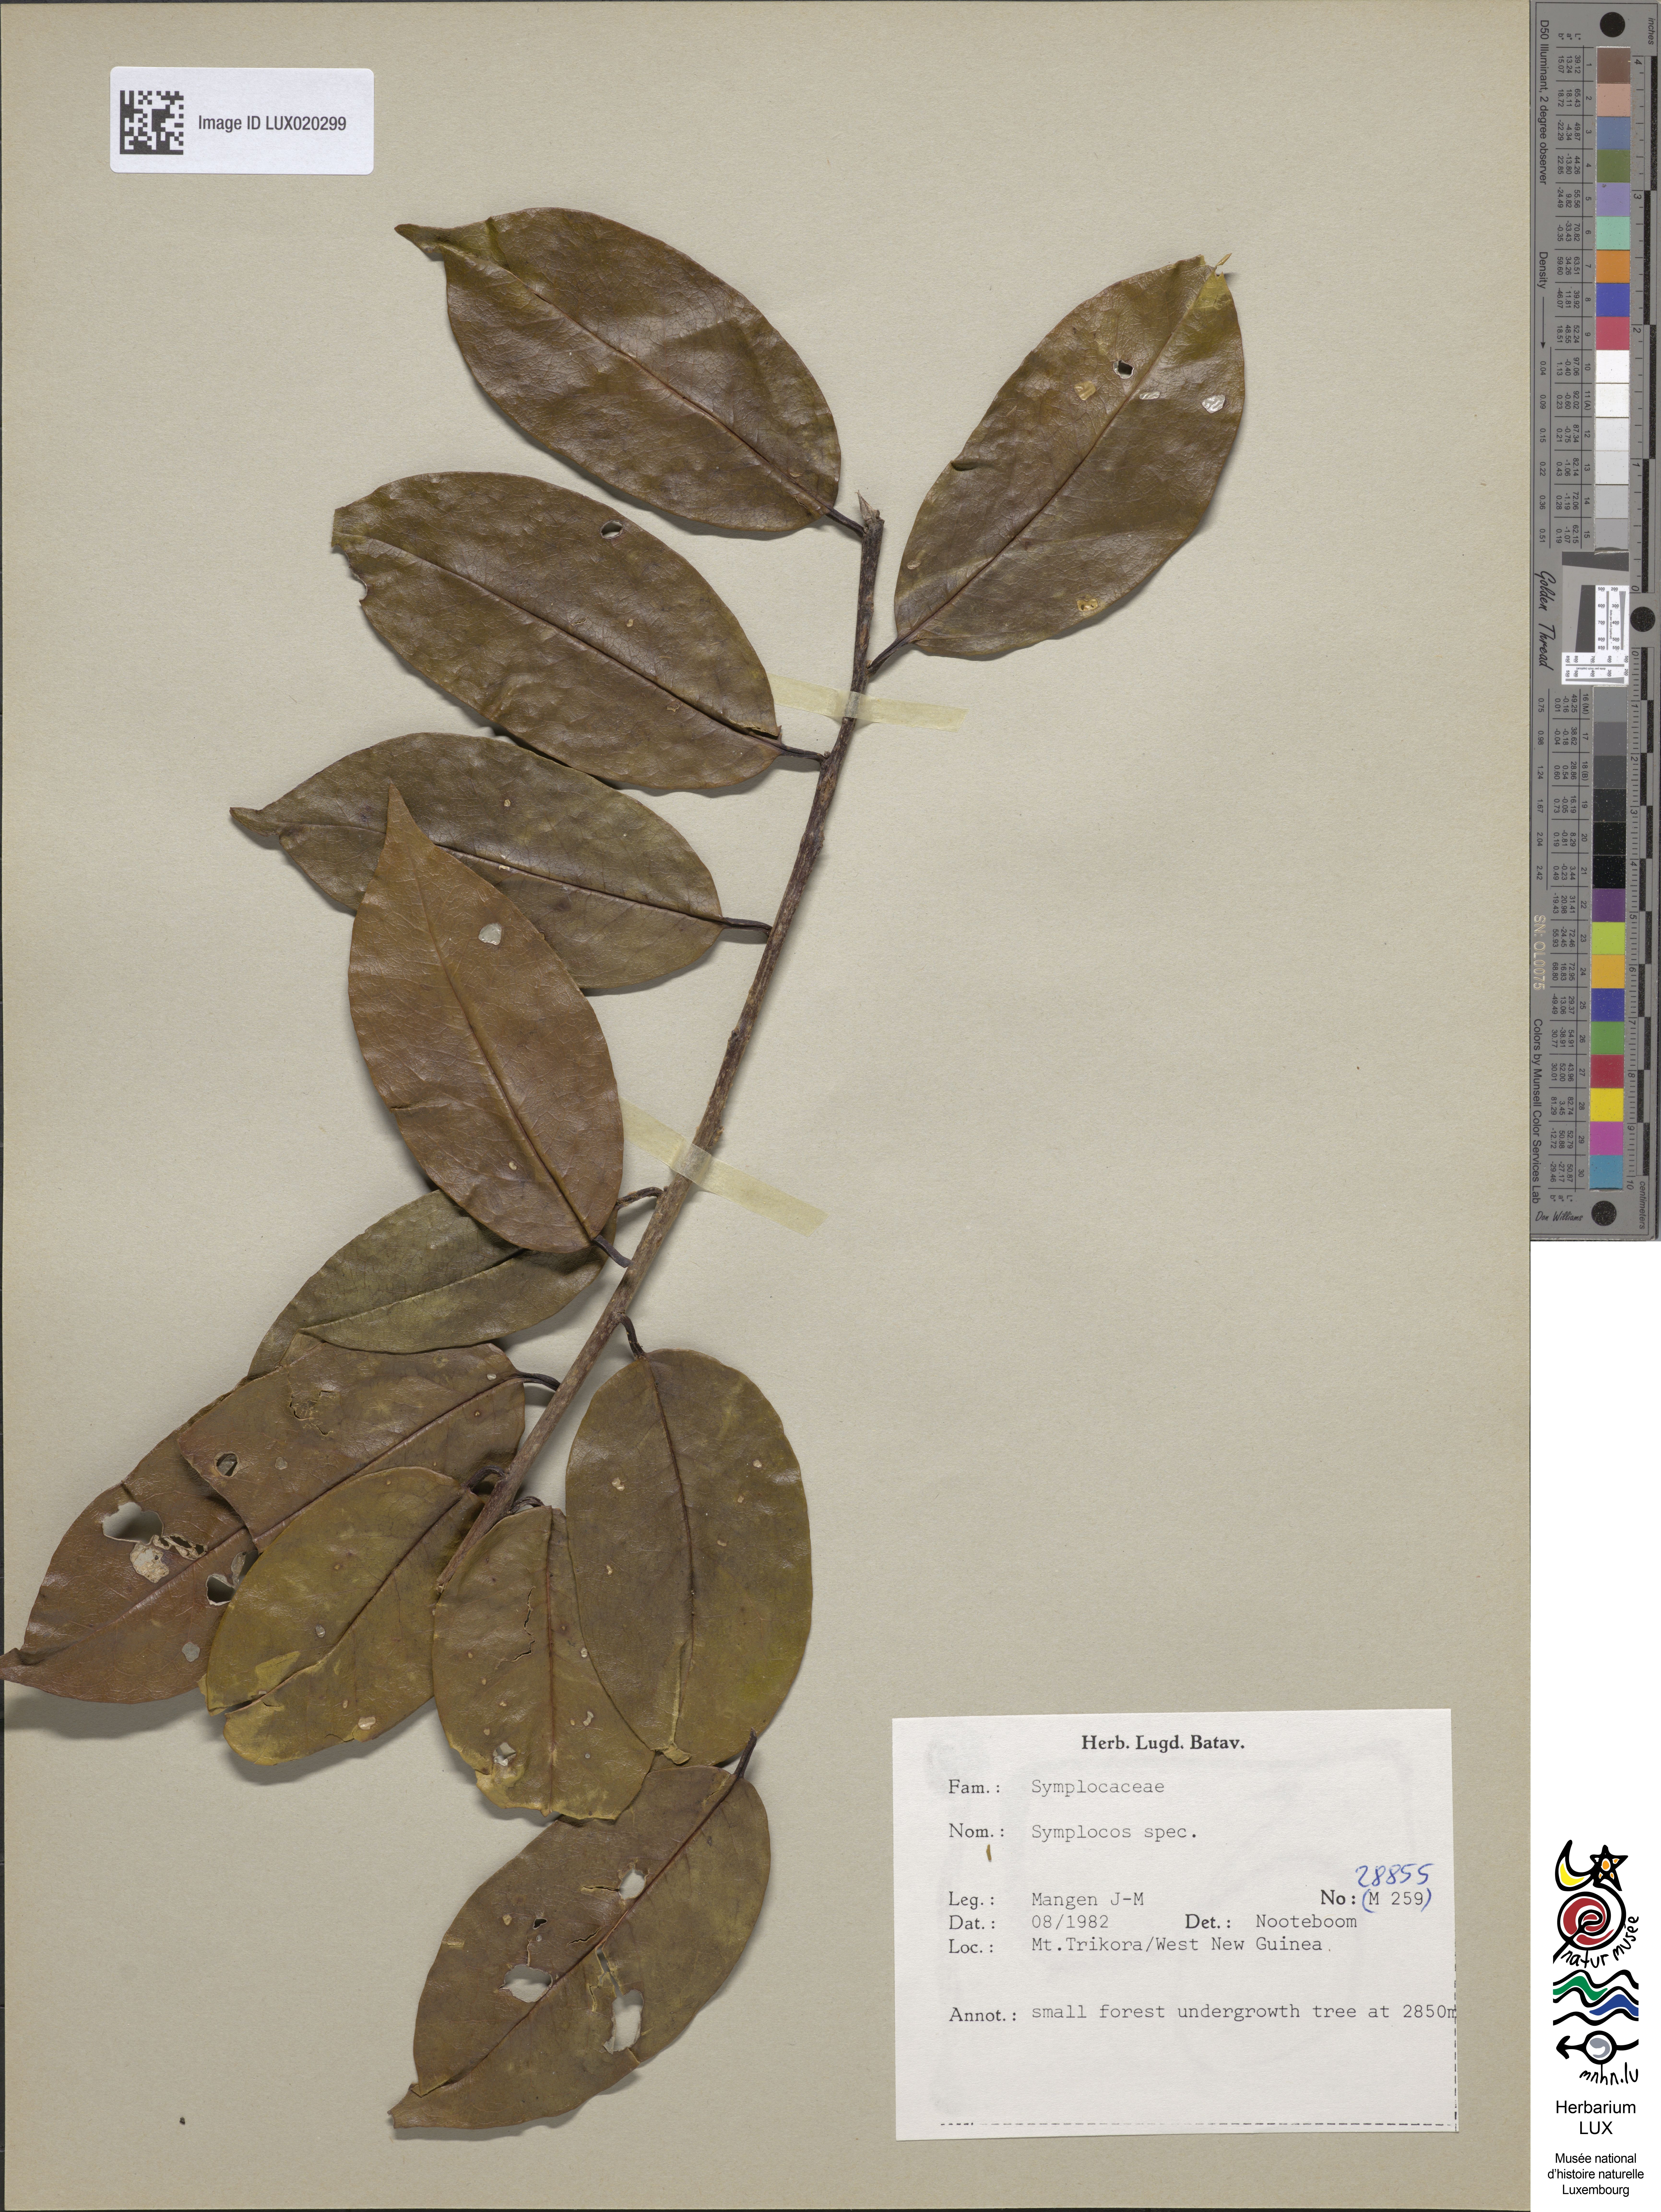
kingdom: Plantae
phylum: Tracheophyta
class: Magnoliopsida
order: Ericales
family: Symplocaceae
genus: Symplocos
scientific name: Symplocos
